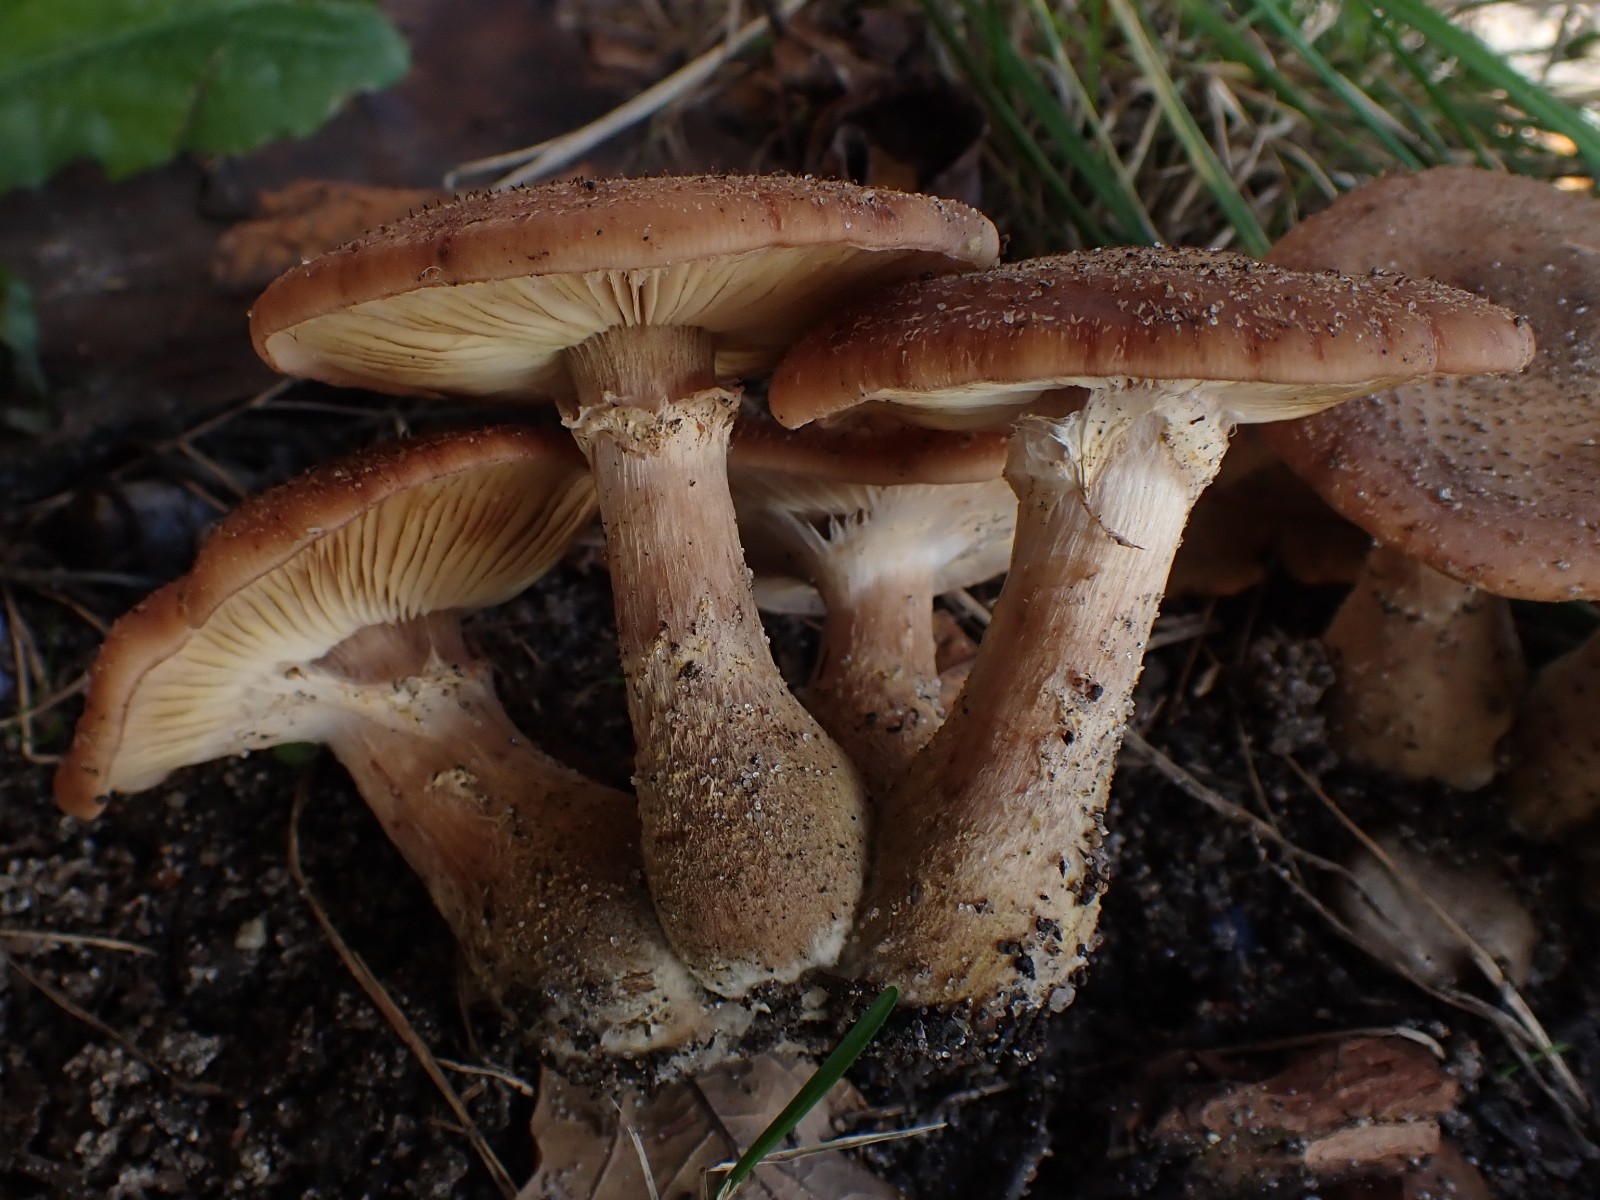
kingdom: Fungi
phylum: Basidiomycota
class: Agaricomycetes
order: Agaricales
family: Physalacriaceae
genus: Armillaria
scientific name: Armillaria lutea
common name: køllestokket honningsvamp
